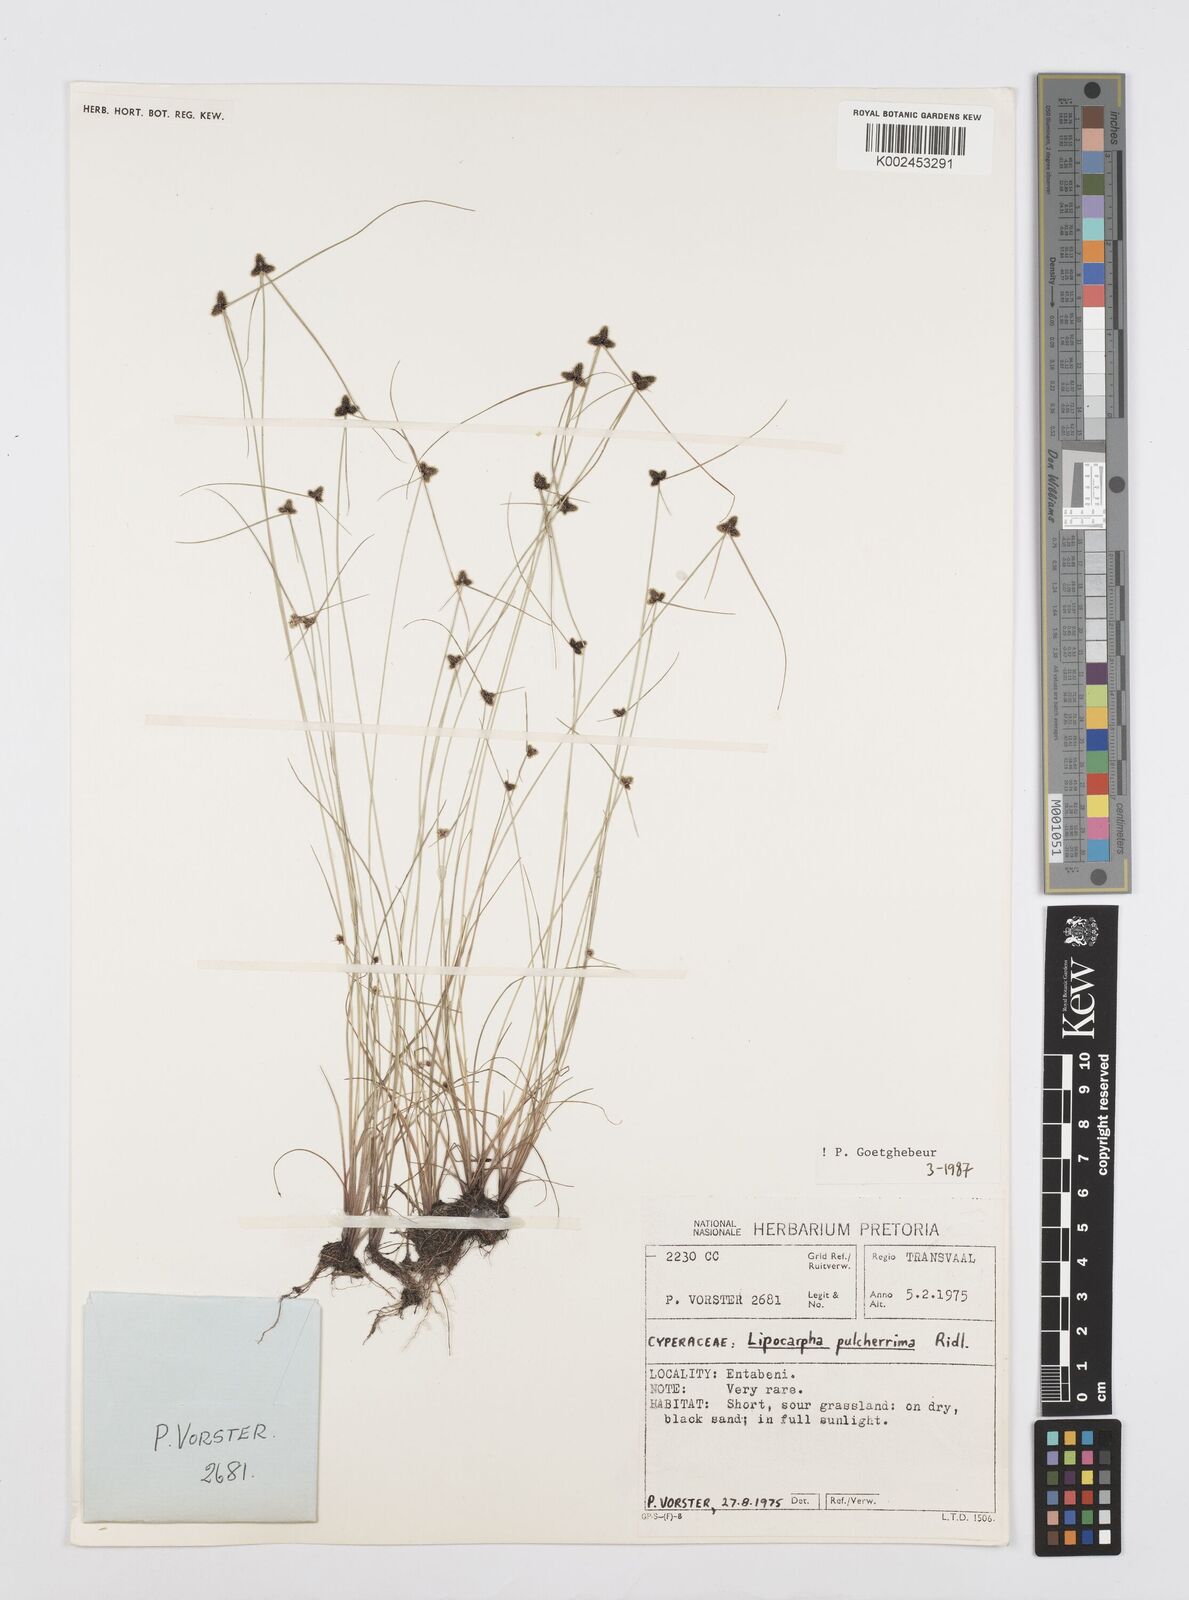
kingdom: Plantae
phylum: Tracheophyta
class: Liliopsida
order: Poales
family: Cyperaceae
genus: Cyperus
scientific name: Cyperus
